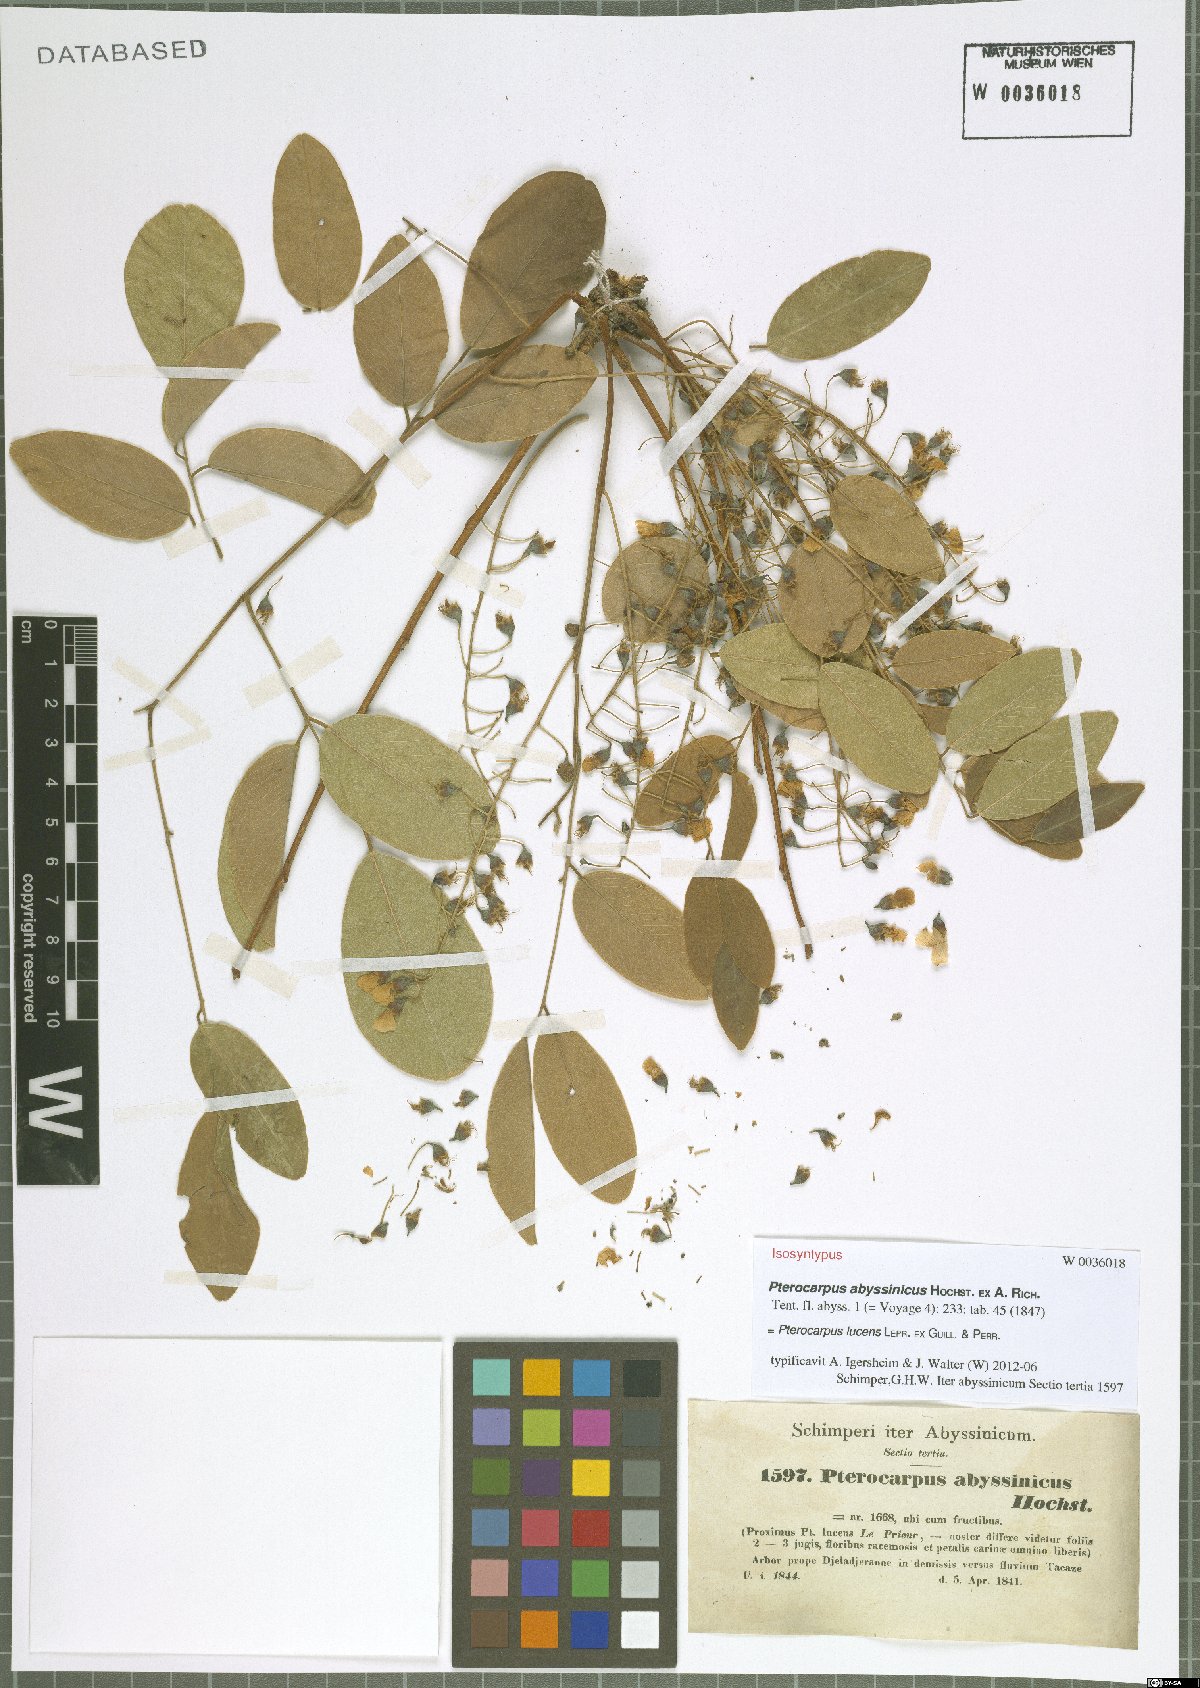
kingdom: Plantae
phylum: Tracheophyta
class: Magnoliopsida
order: Fabales
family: Fabaceae
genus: Pterocarpus
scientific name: Pterocarpus lucens
